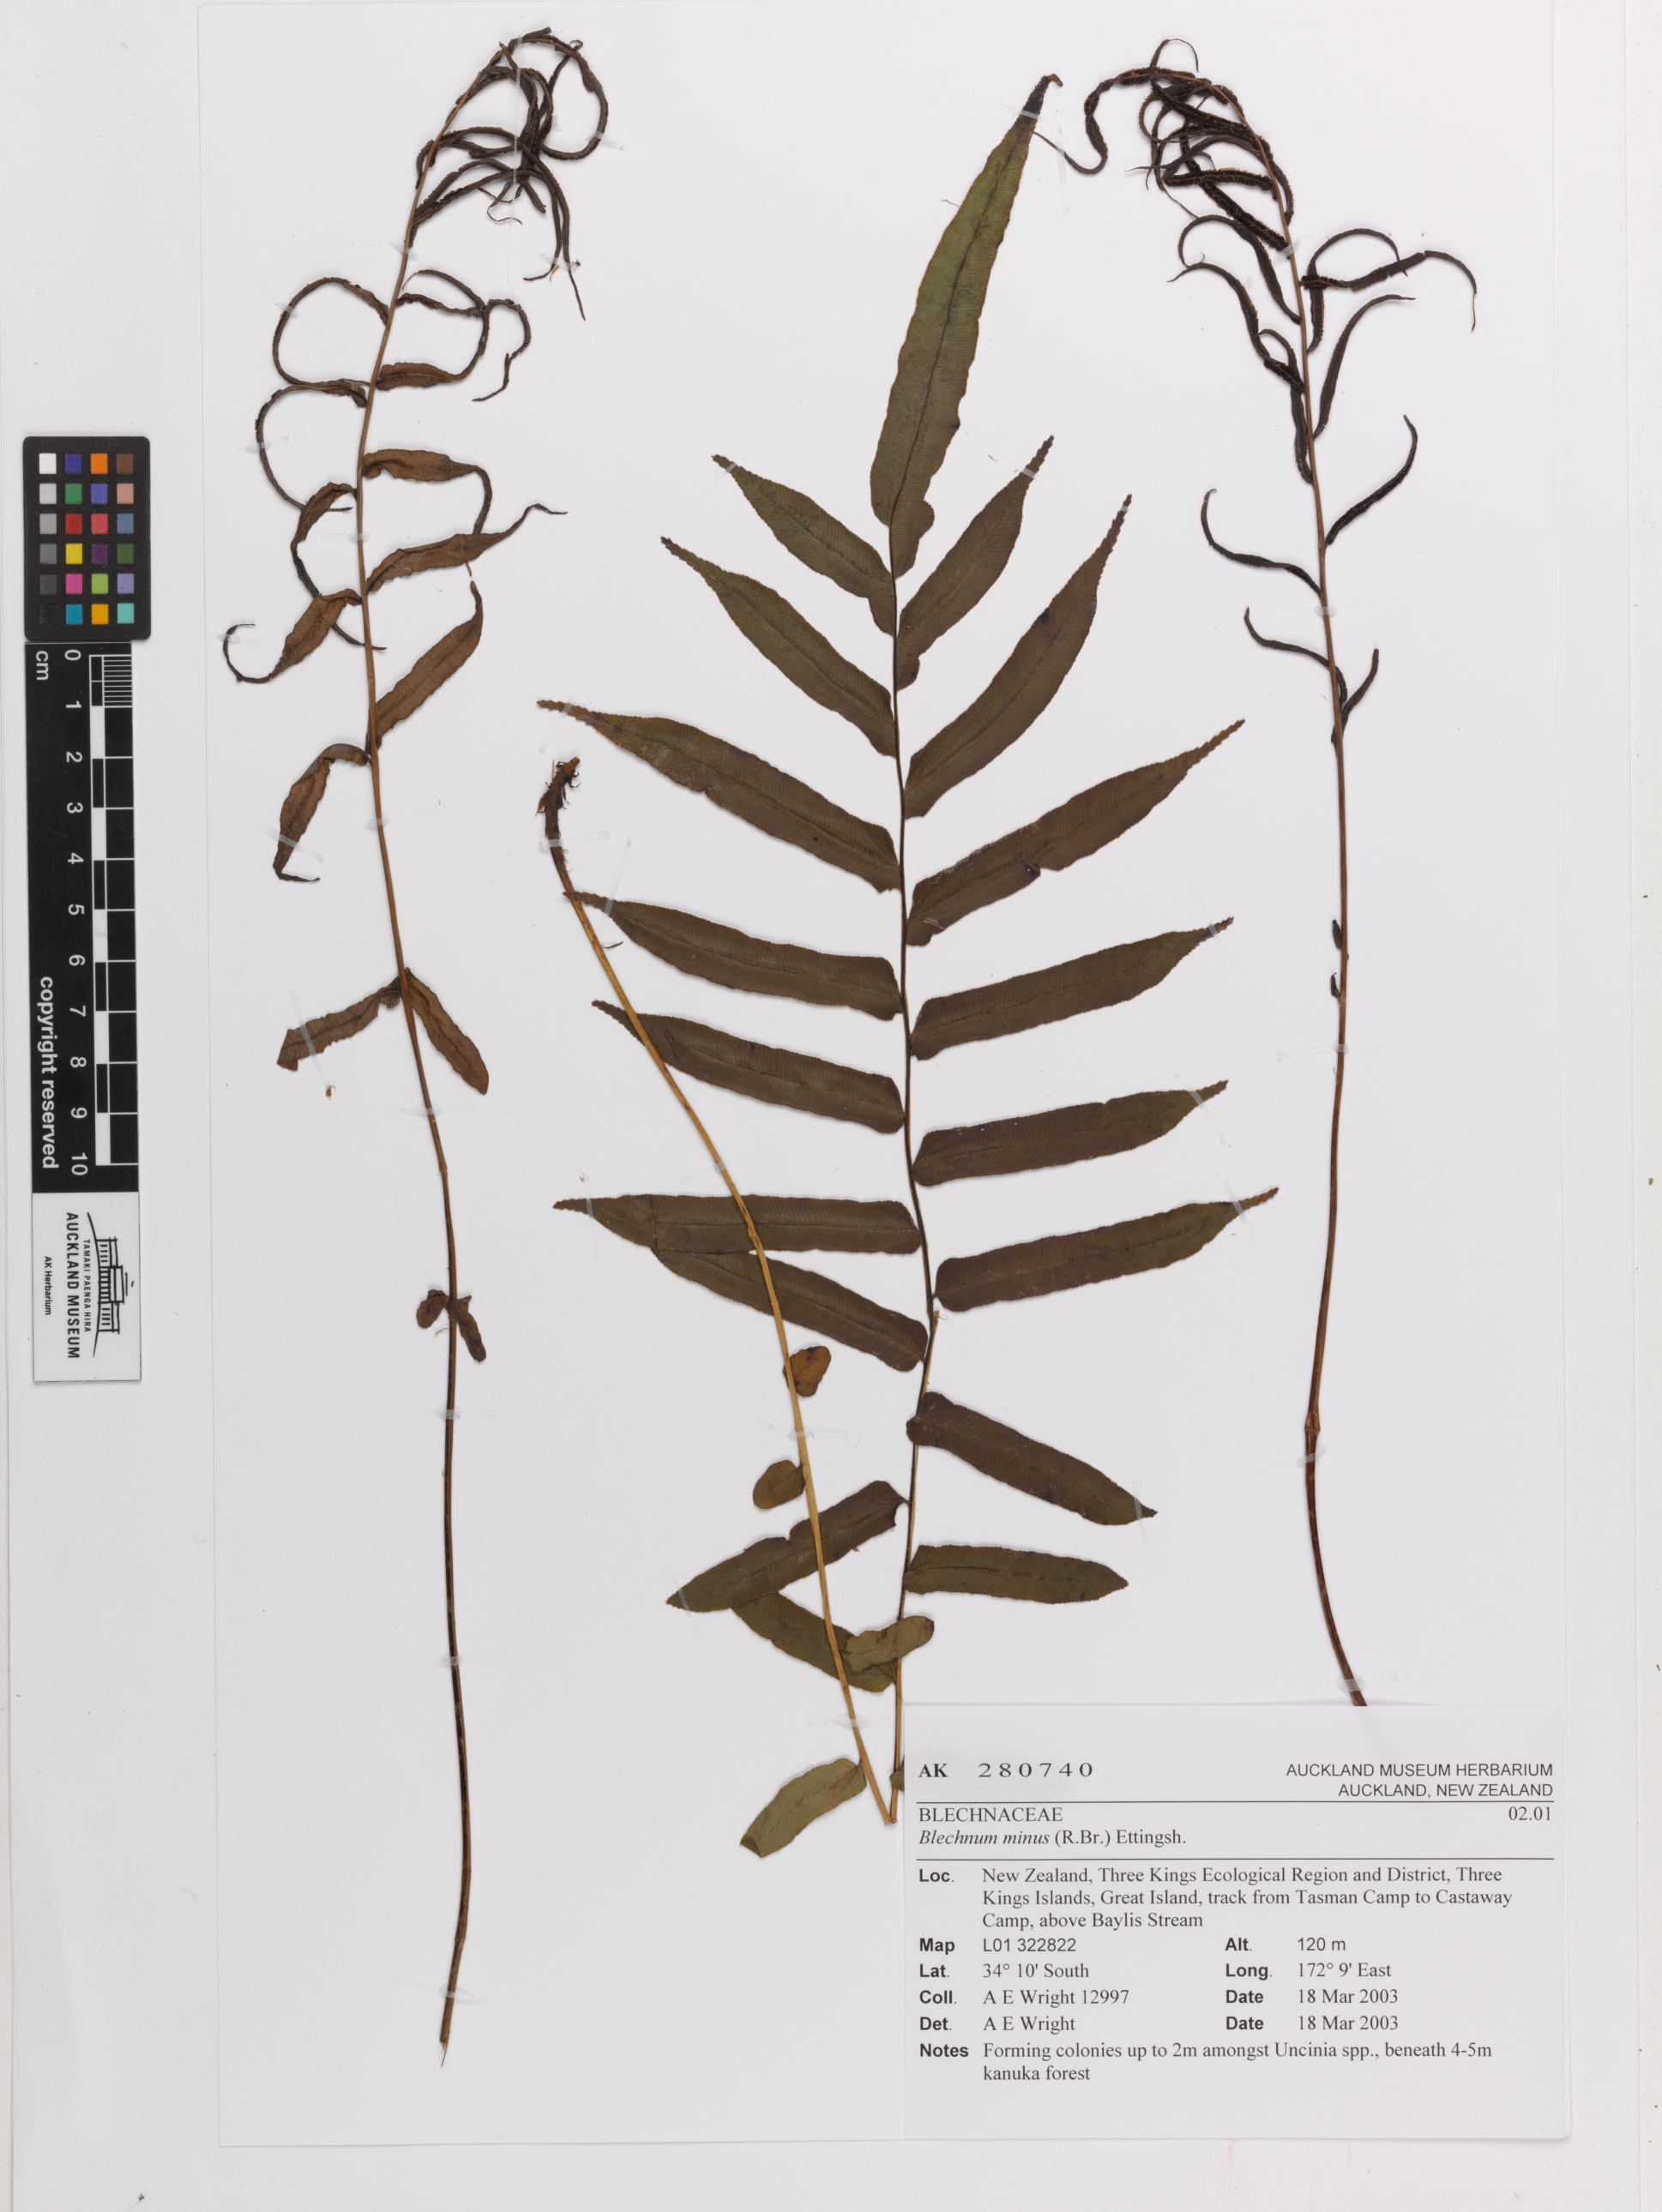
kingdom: Plantae
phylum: Tracheophyta
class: Polypodiopsida
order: Polypodiales
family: Blechnaceae
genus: Blechnum
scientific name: Blechnum
